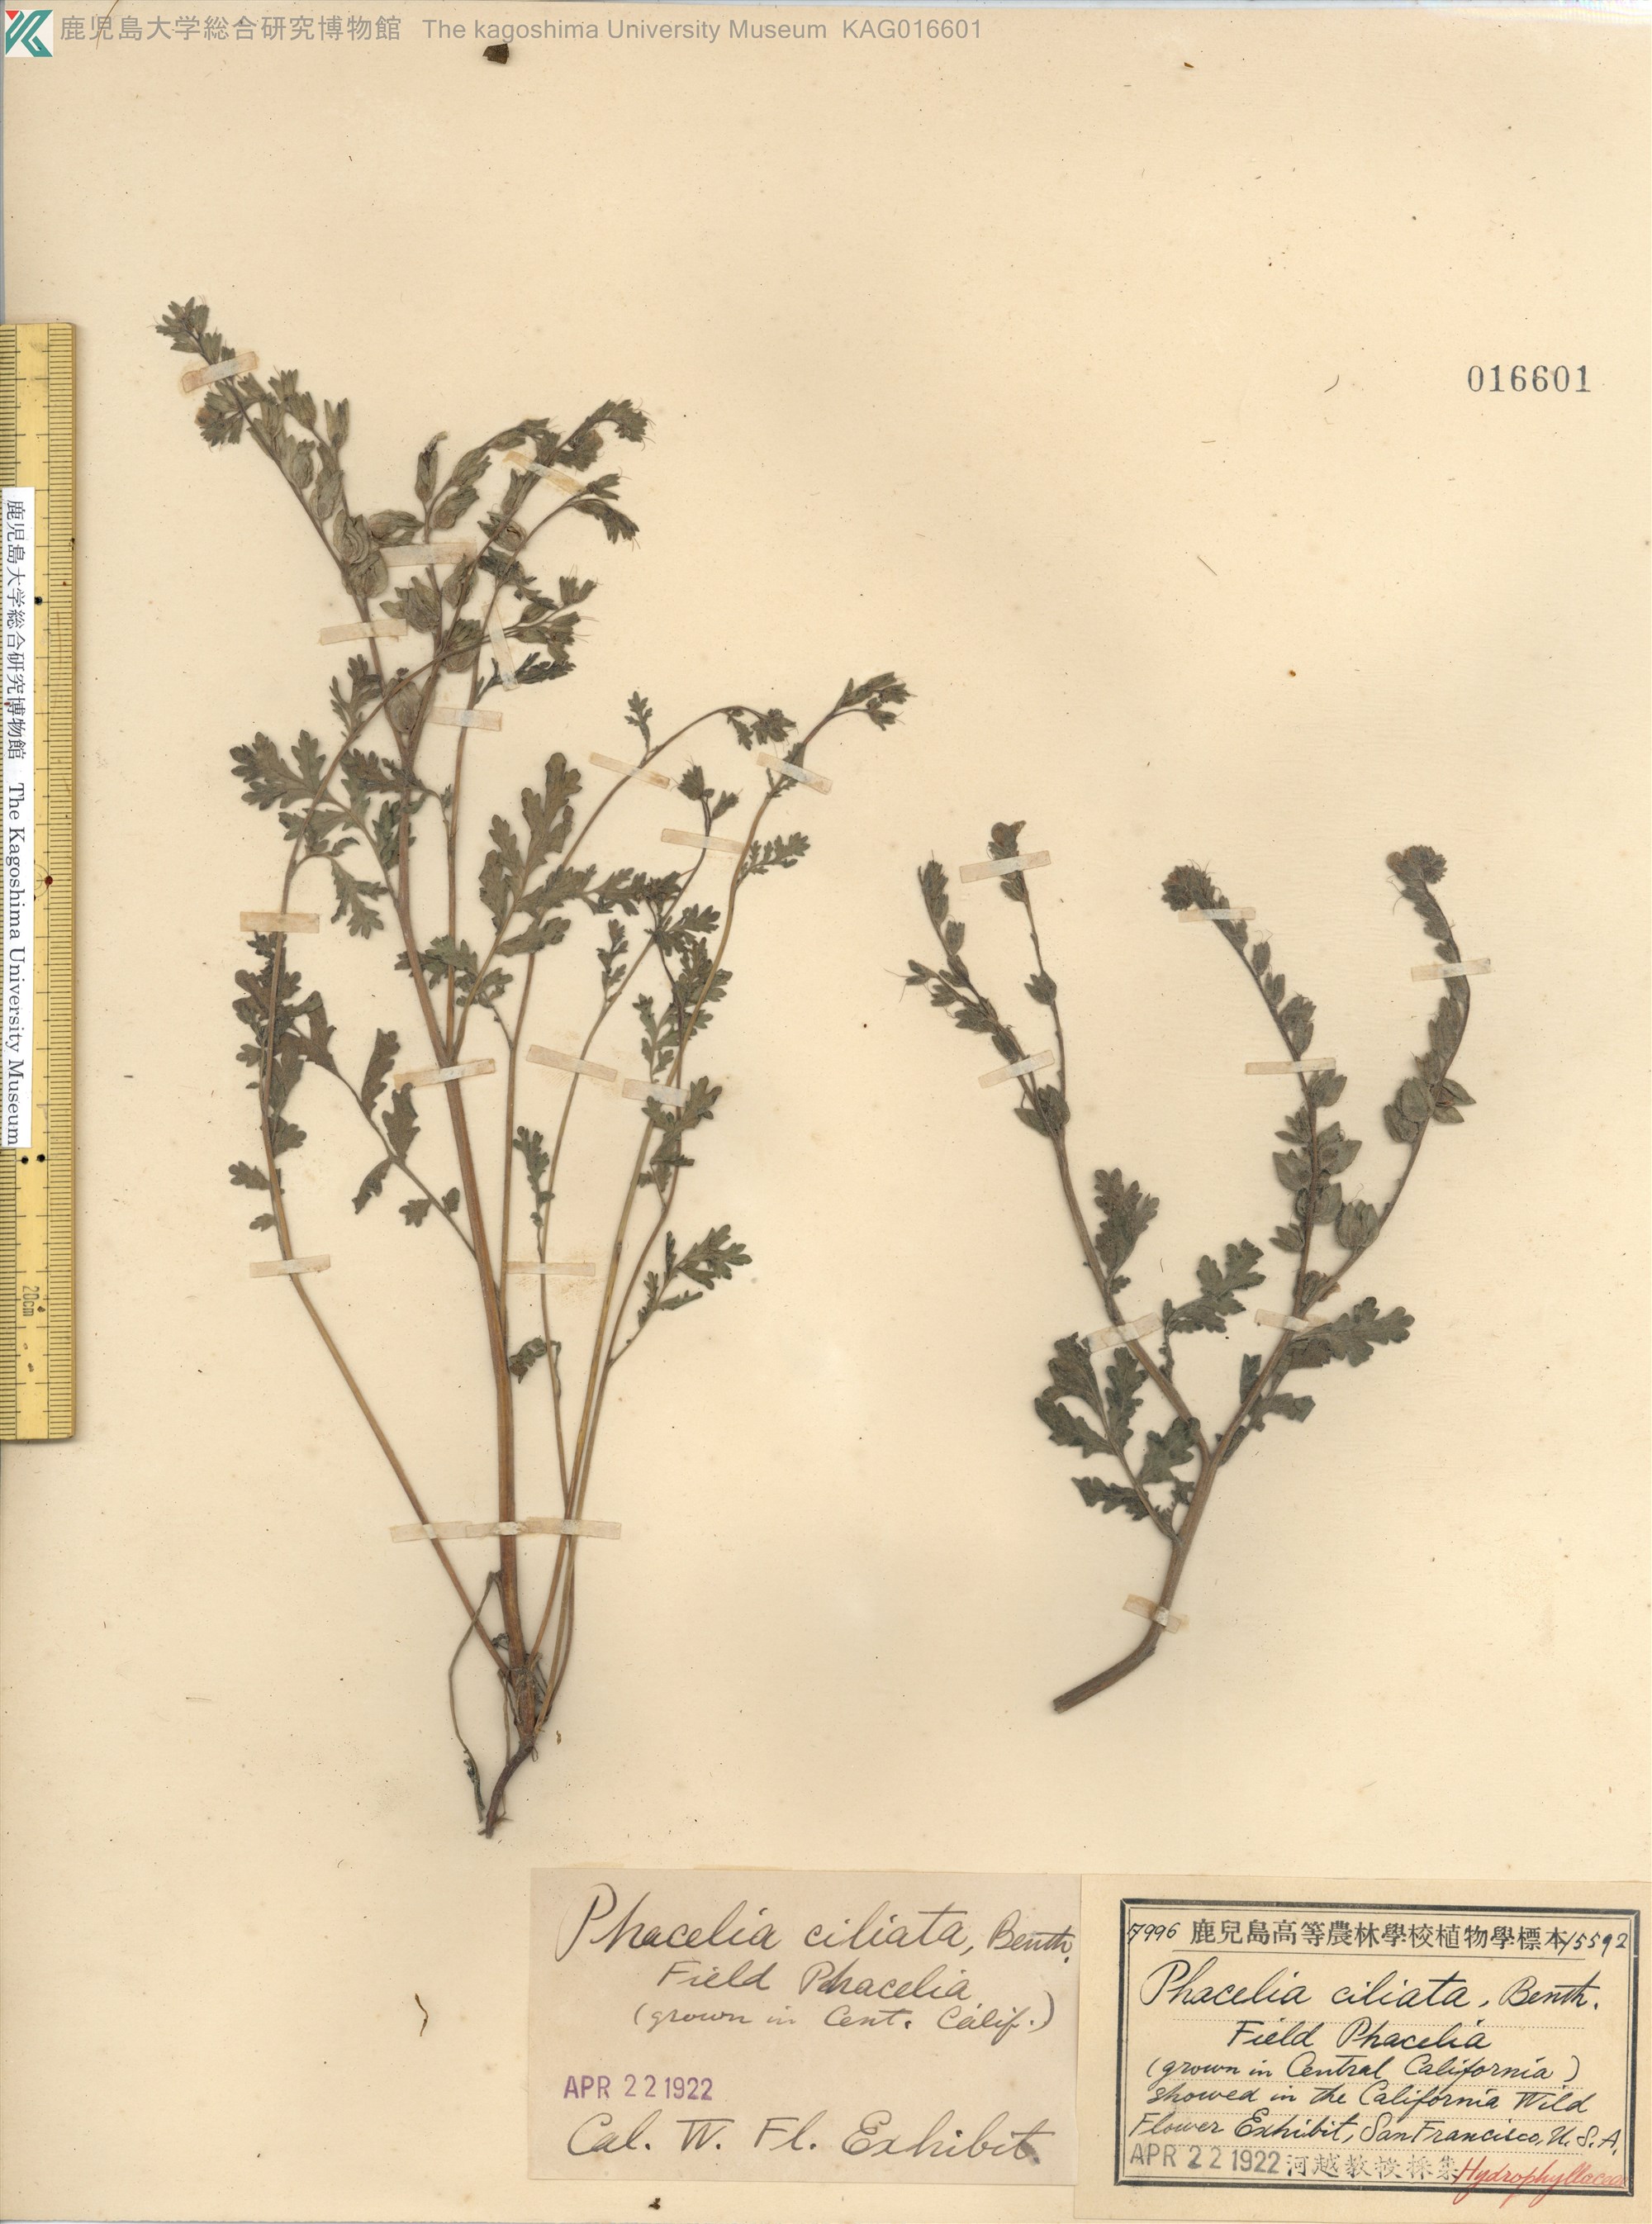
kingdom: Plantae
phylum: Tracheophyta
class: Magnoliopsida
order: Boraginales
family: Hydrophyllaceae
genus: Phacelia
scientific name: Phacelia ciliata
